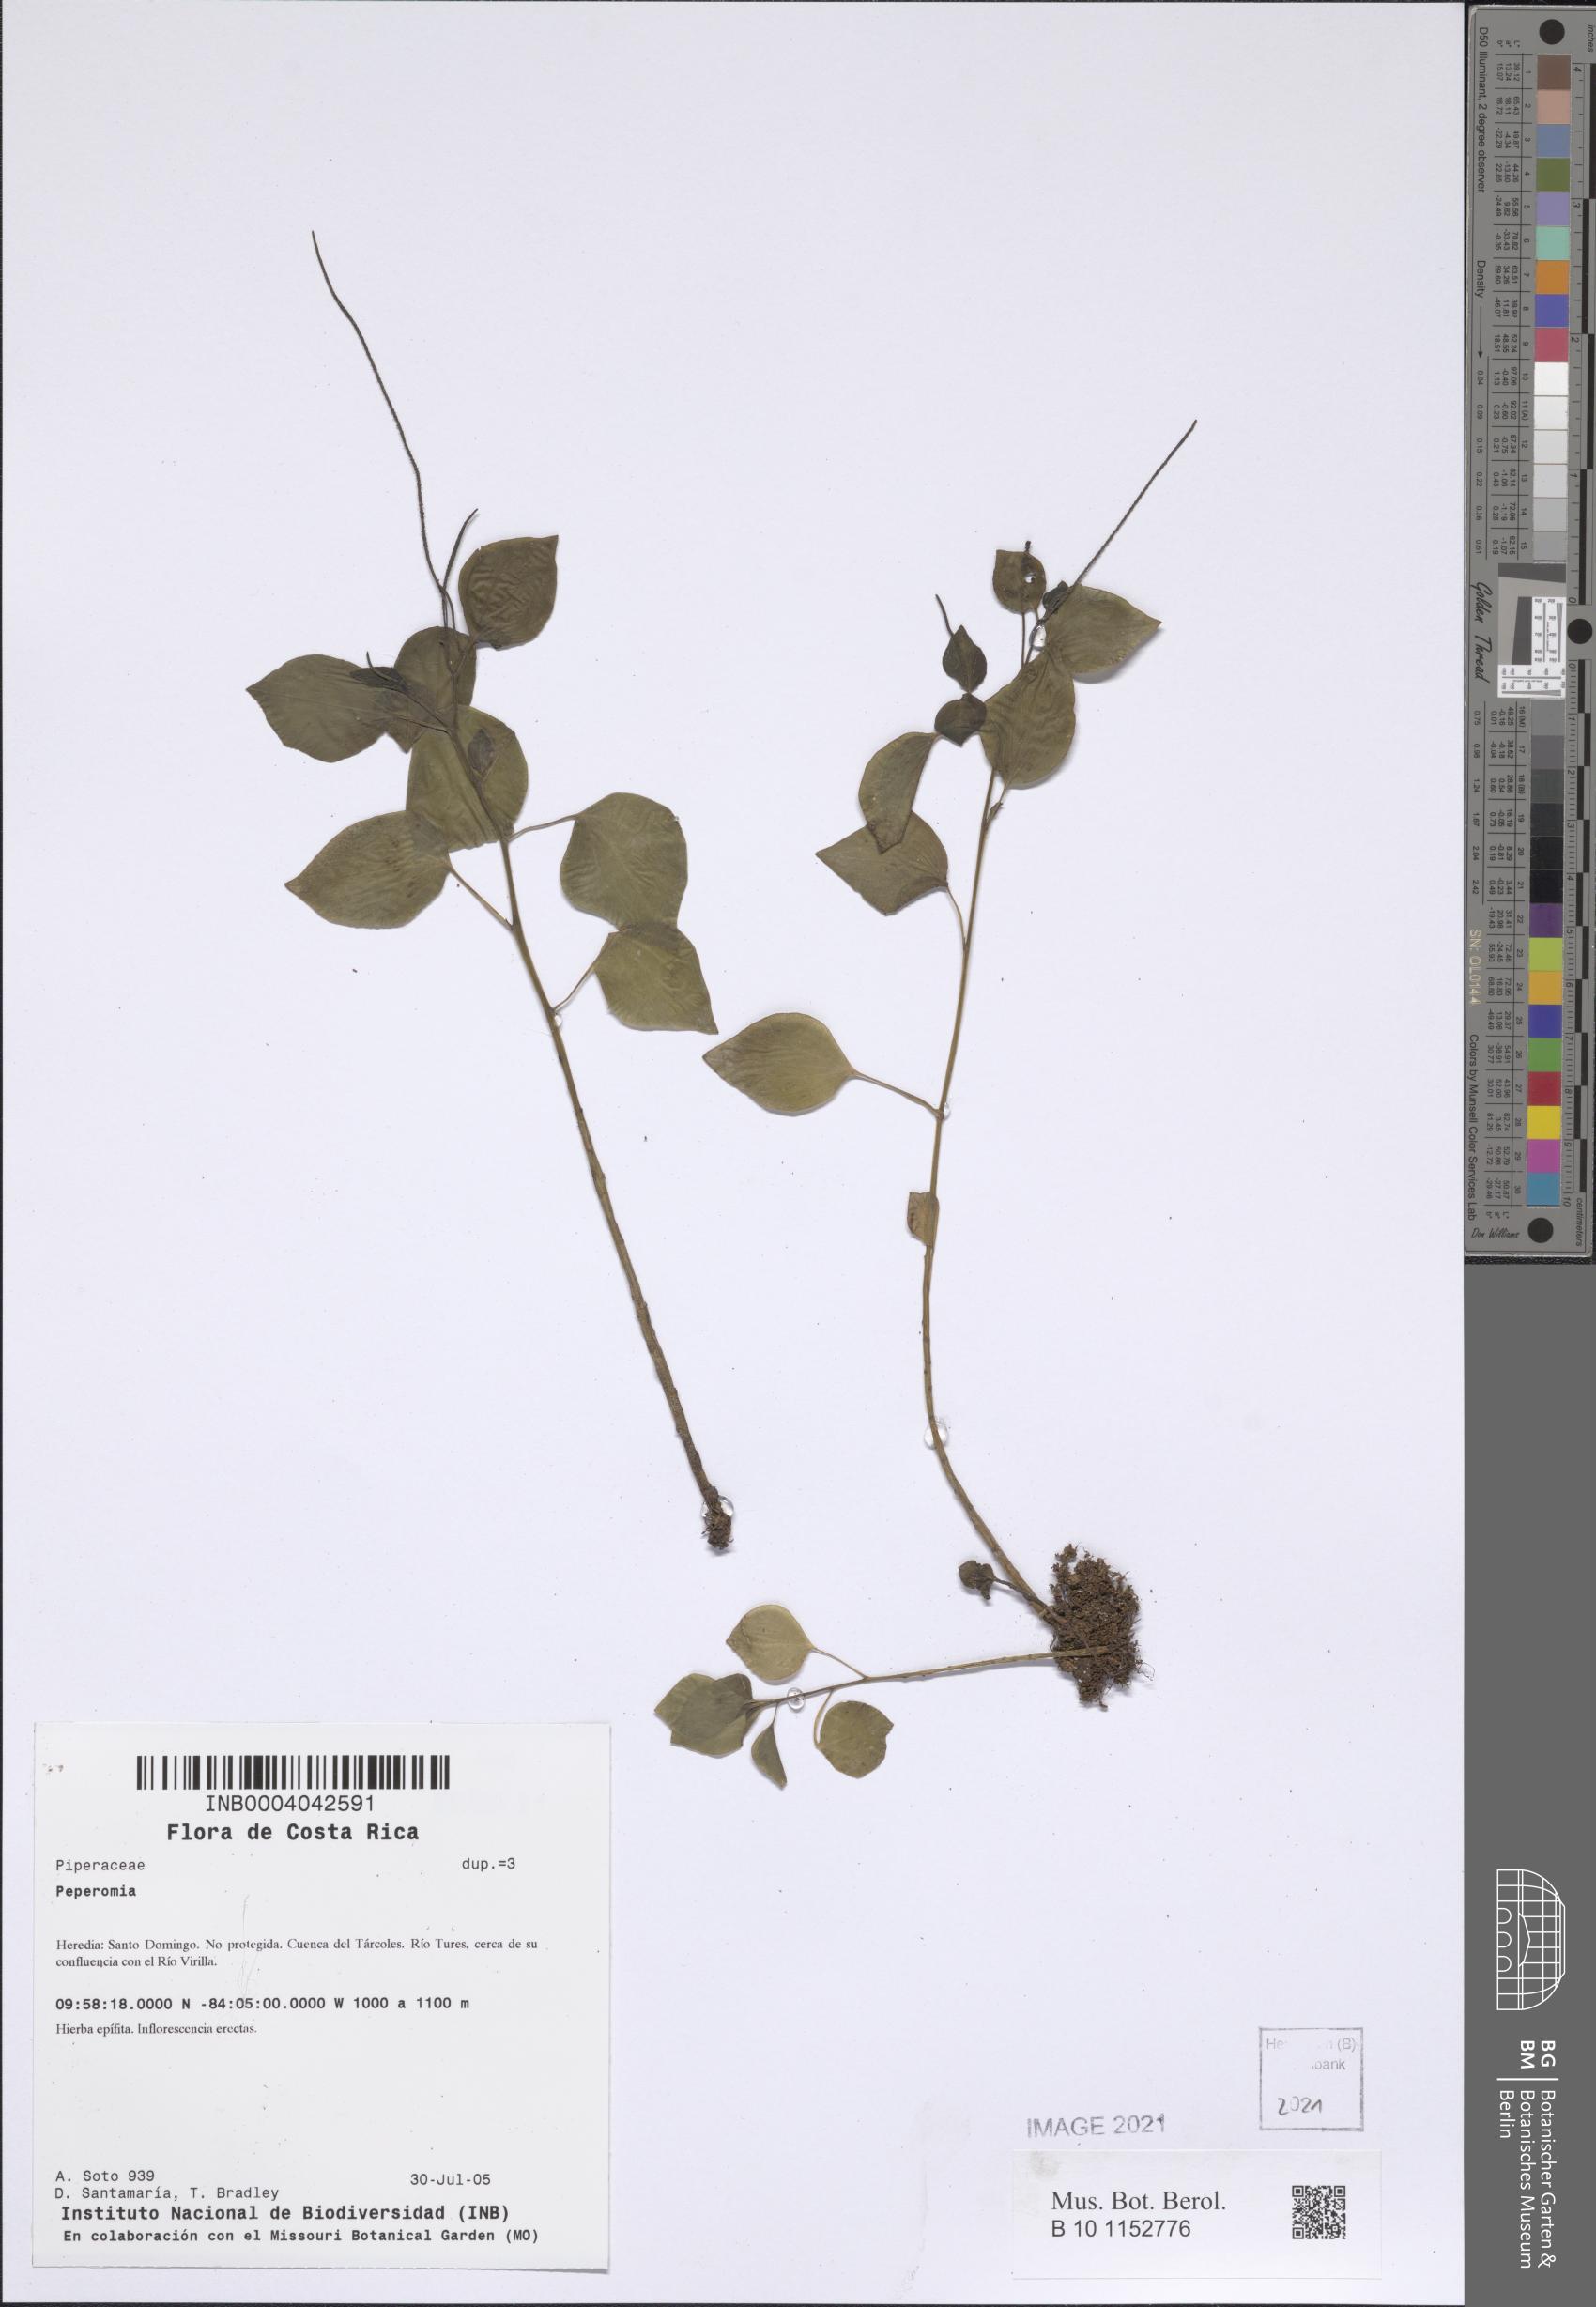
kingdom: Plantae
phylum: Tracheophyta
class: Magnoliopsida
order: Piperales
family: Piperaceae
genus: Peperomia
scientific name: Peperomia
